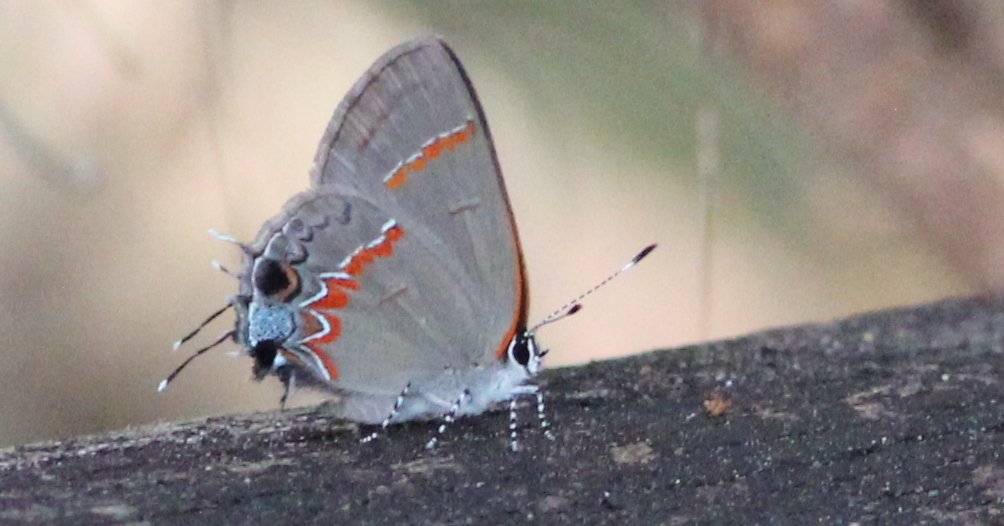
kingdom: Animalia
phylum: Arthropoda
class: Insecta
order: Lepidoptera
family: Lycaenidae
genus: Calycopis
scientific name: Calycopis cecrops
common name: Red-banded Hairstreak
